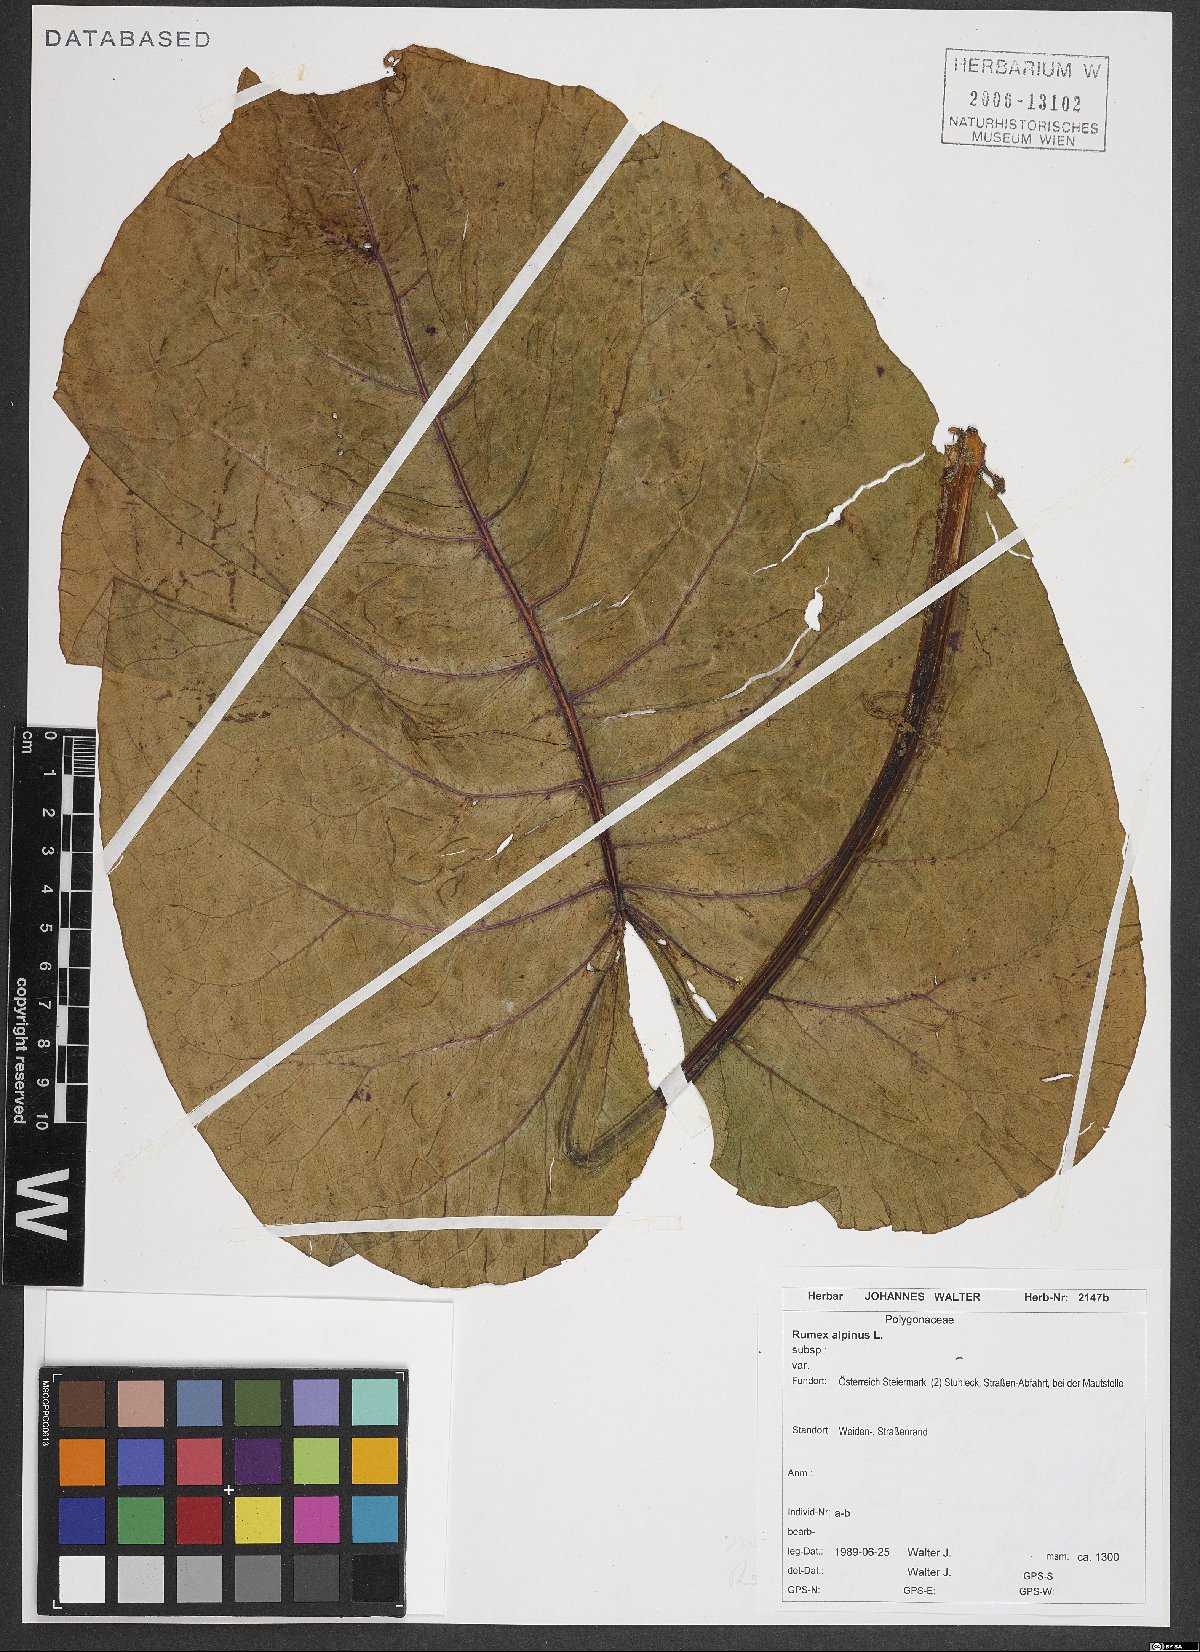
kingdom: Plantae
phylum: Tracheophyta
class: Magnoliopsida
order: Caryophyllales
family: Polygonaceae
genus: Rumex
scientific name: Rumex alpinus
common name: Alpine dock
